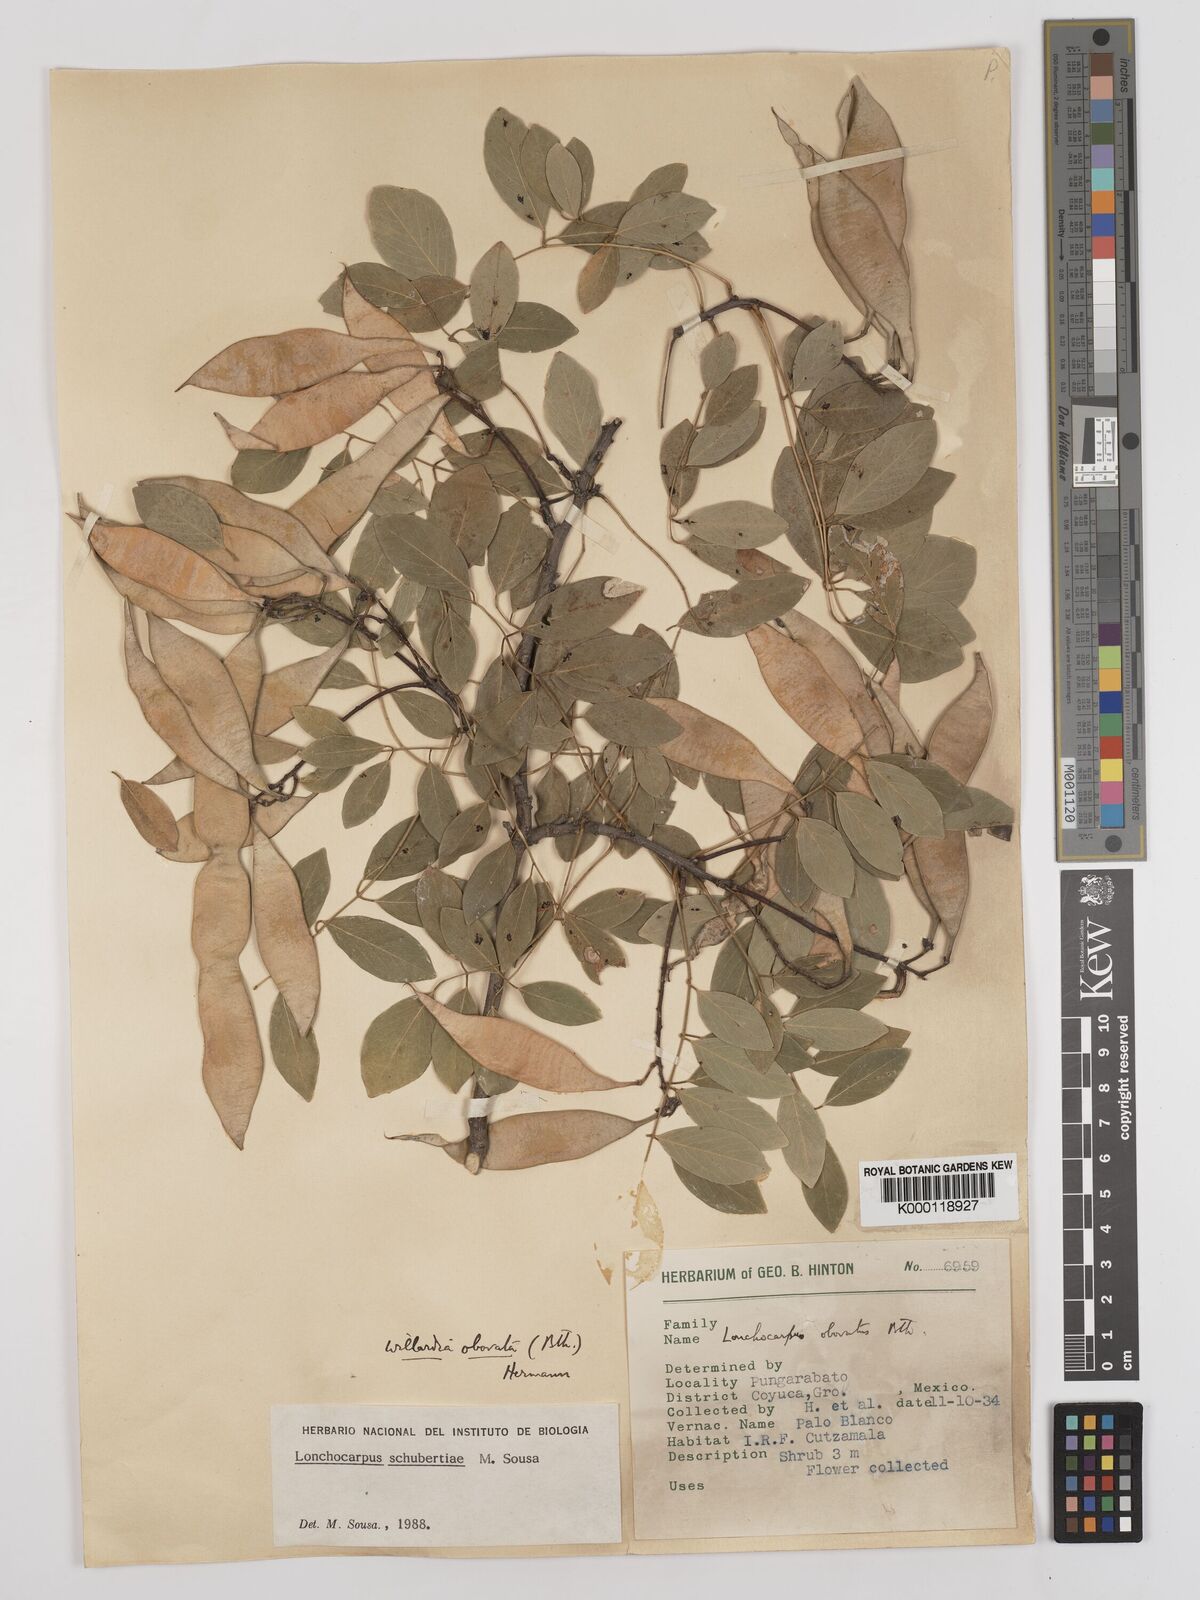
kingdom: Plantae
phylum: Tracheophyta
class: Magnoliopsida
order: Fabales
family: Fabaceae
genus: Lonchocarpus
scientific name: Lonchocarpus schubertiae
